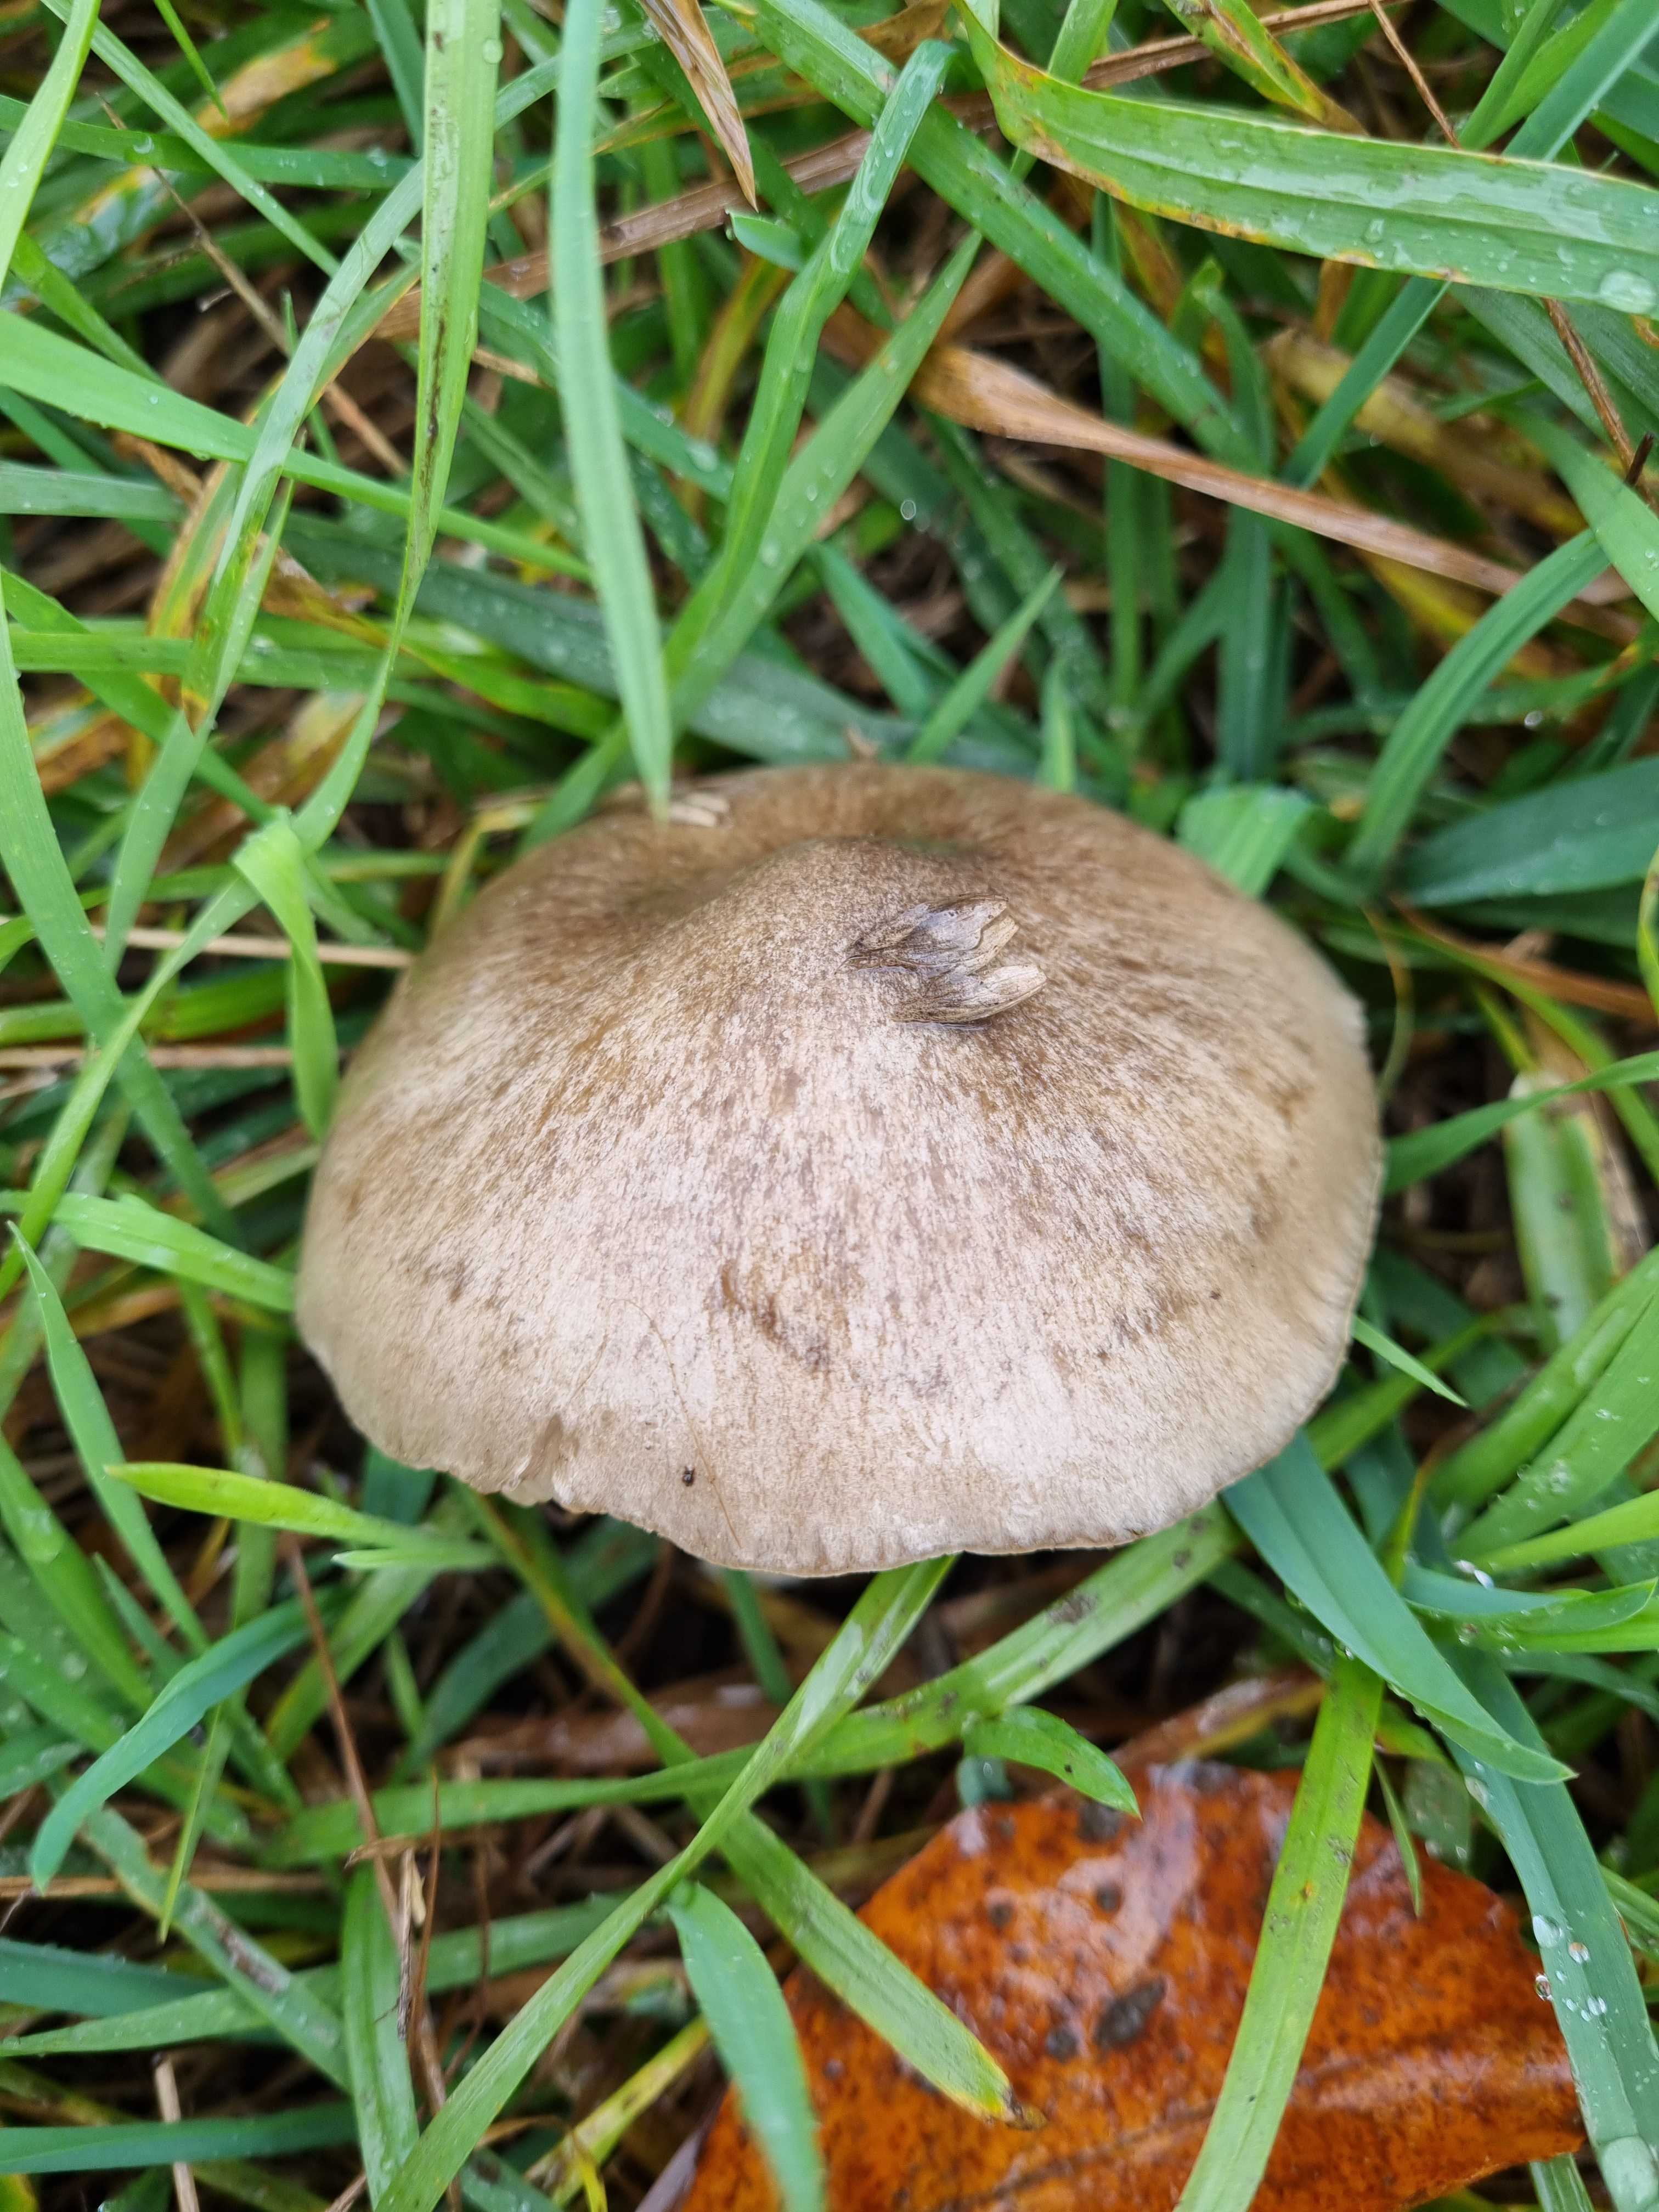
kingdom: Fungi
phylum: Basidiomycota
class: Agaricomycetes
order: Agaricales
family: Entolomataceae
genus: Entoloma
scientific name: Entoloma
